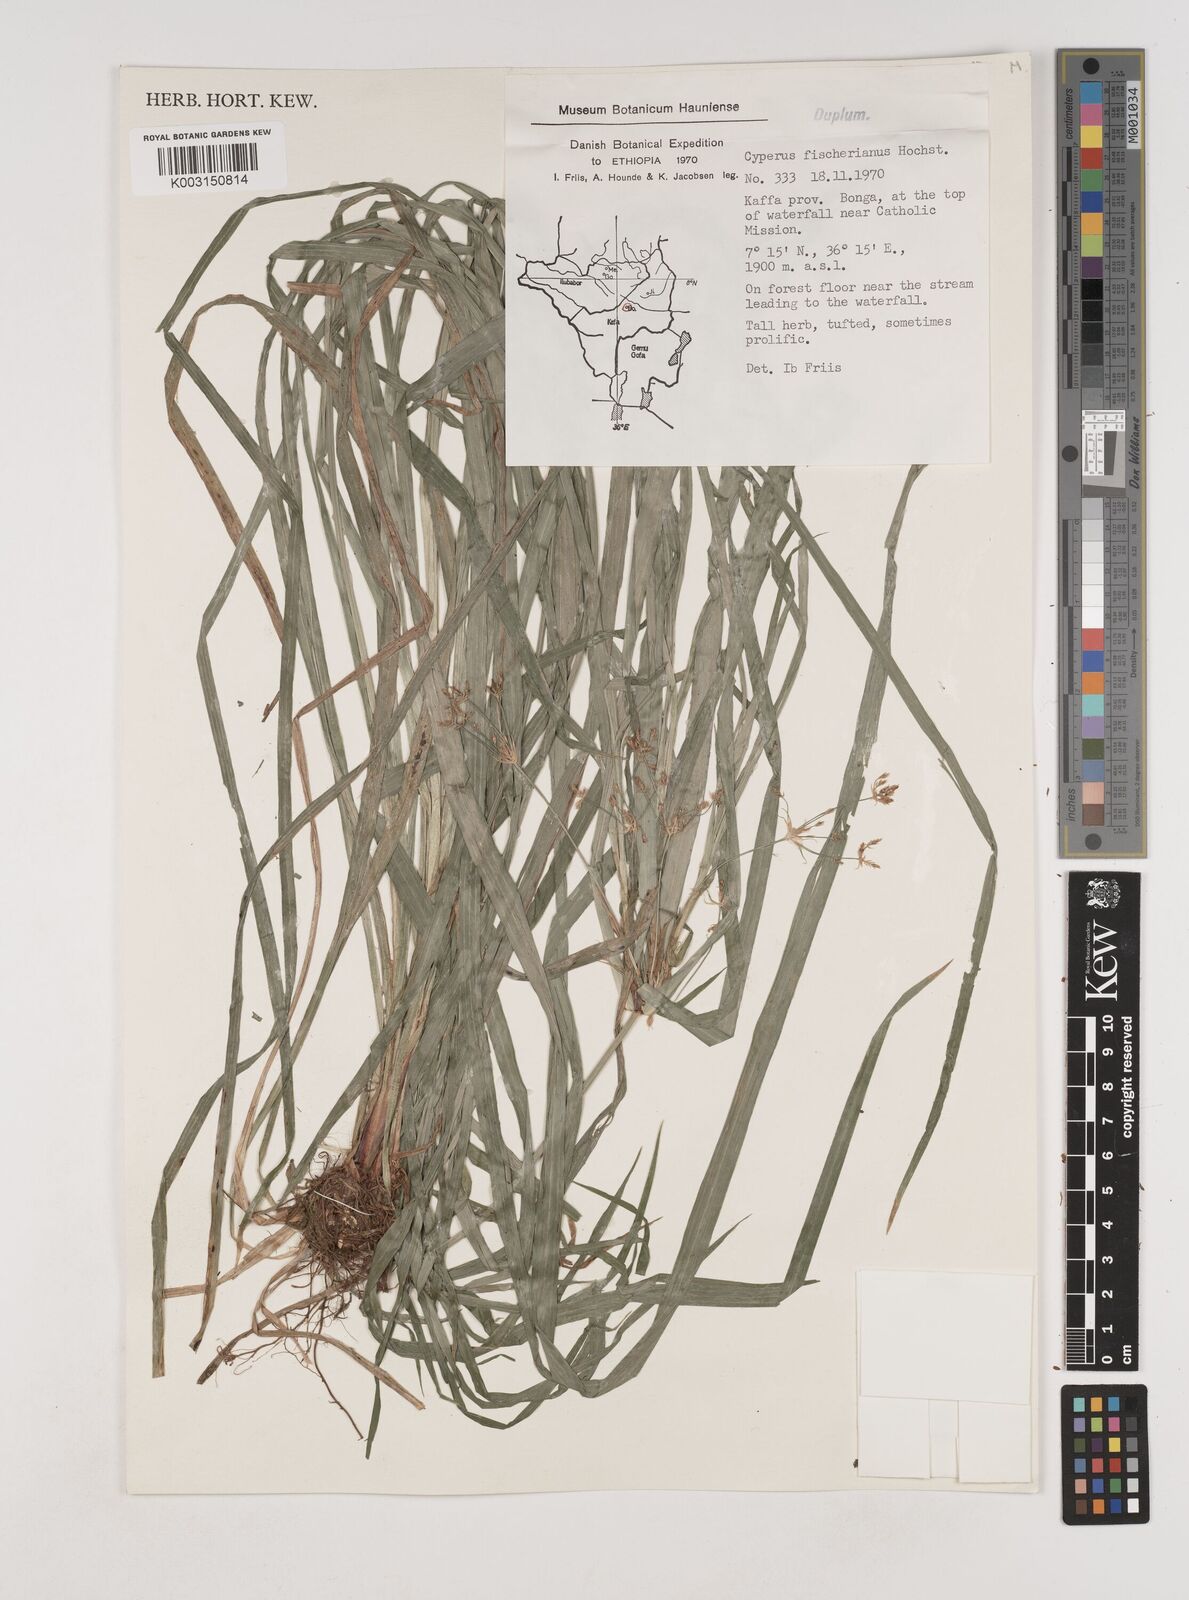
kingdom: Plantae
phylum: Tracheophyta
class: Liliopsida
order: Poales
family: Cyperaceae
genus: Cyperus
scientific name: Cyperus fischerianus
